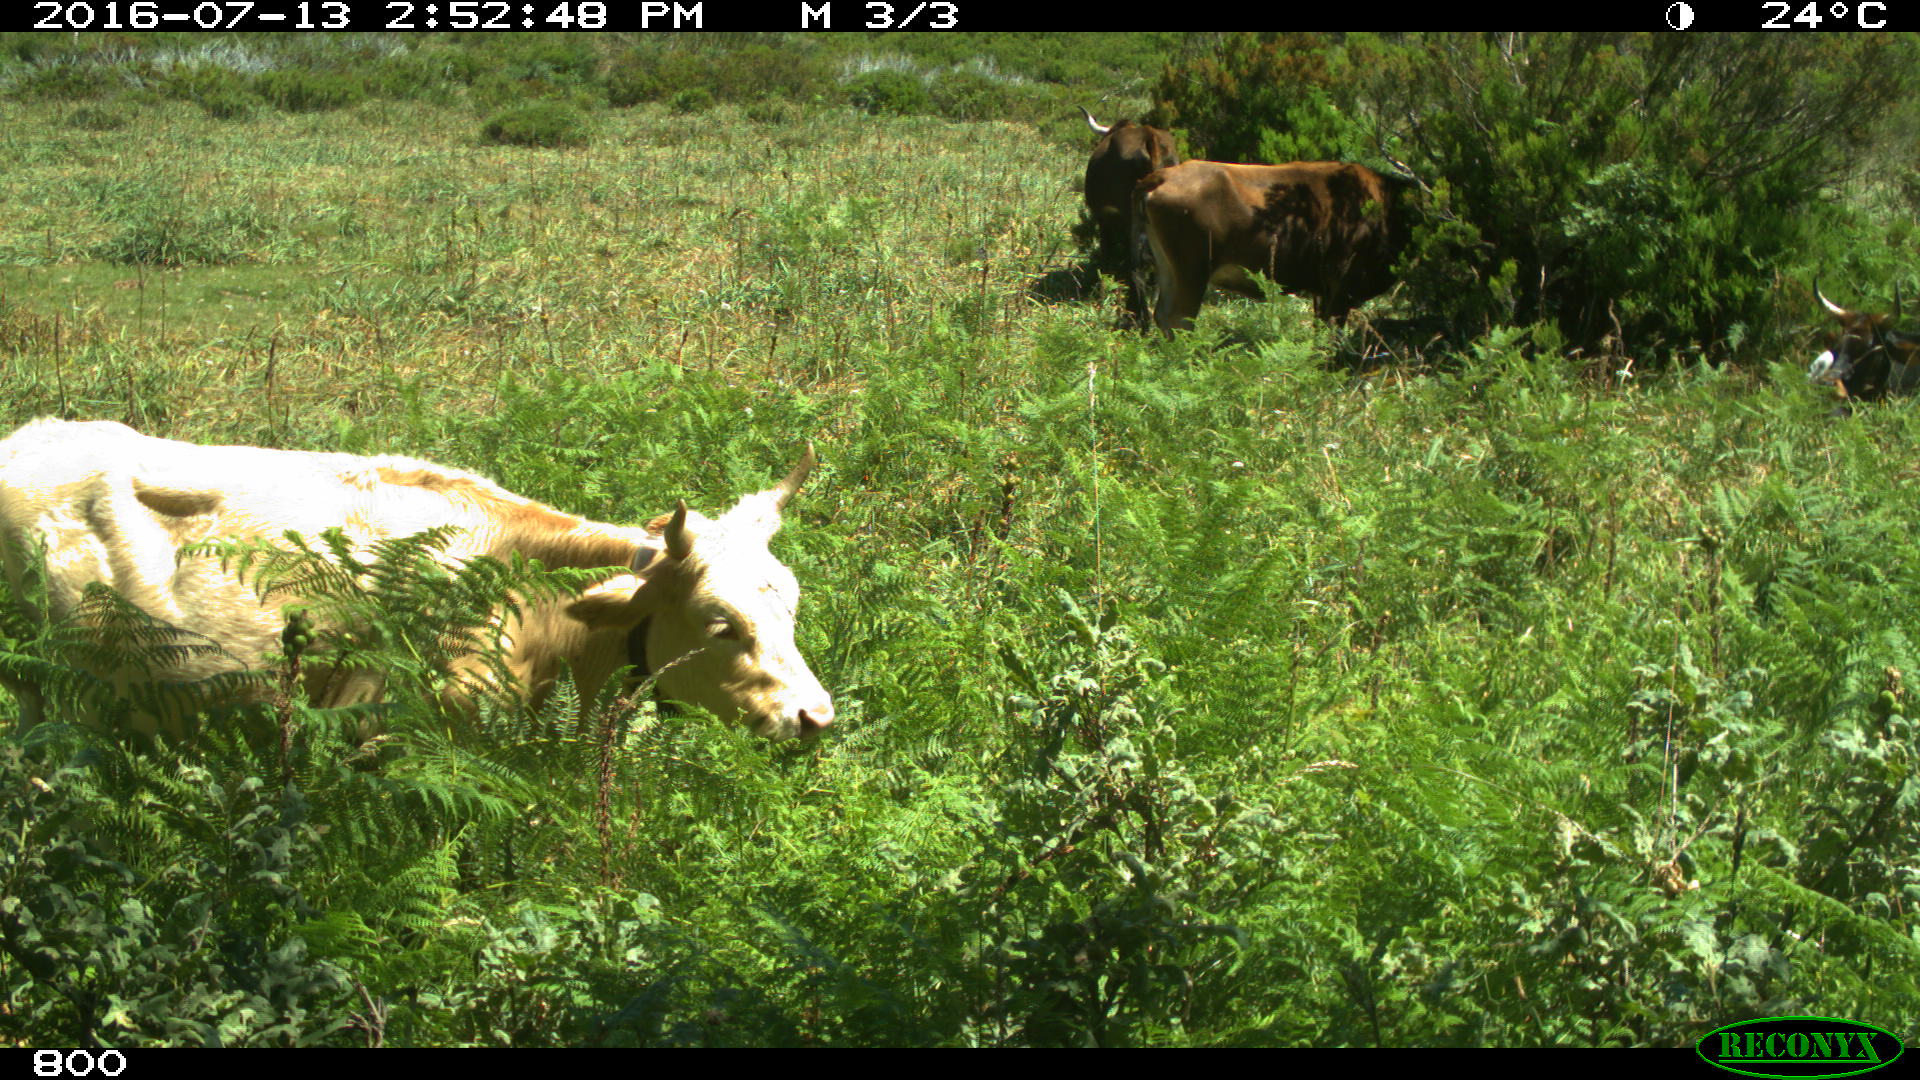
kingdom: Animalia
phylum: Chordata
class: Mammalia
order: Artiodactyla
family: Bovidae
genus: Bos
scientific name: Bos taurus
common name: Domesticated cattle
